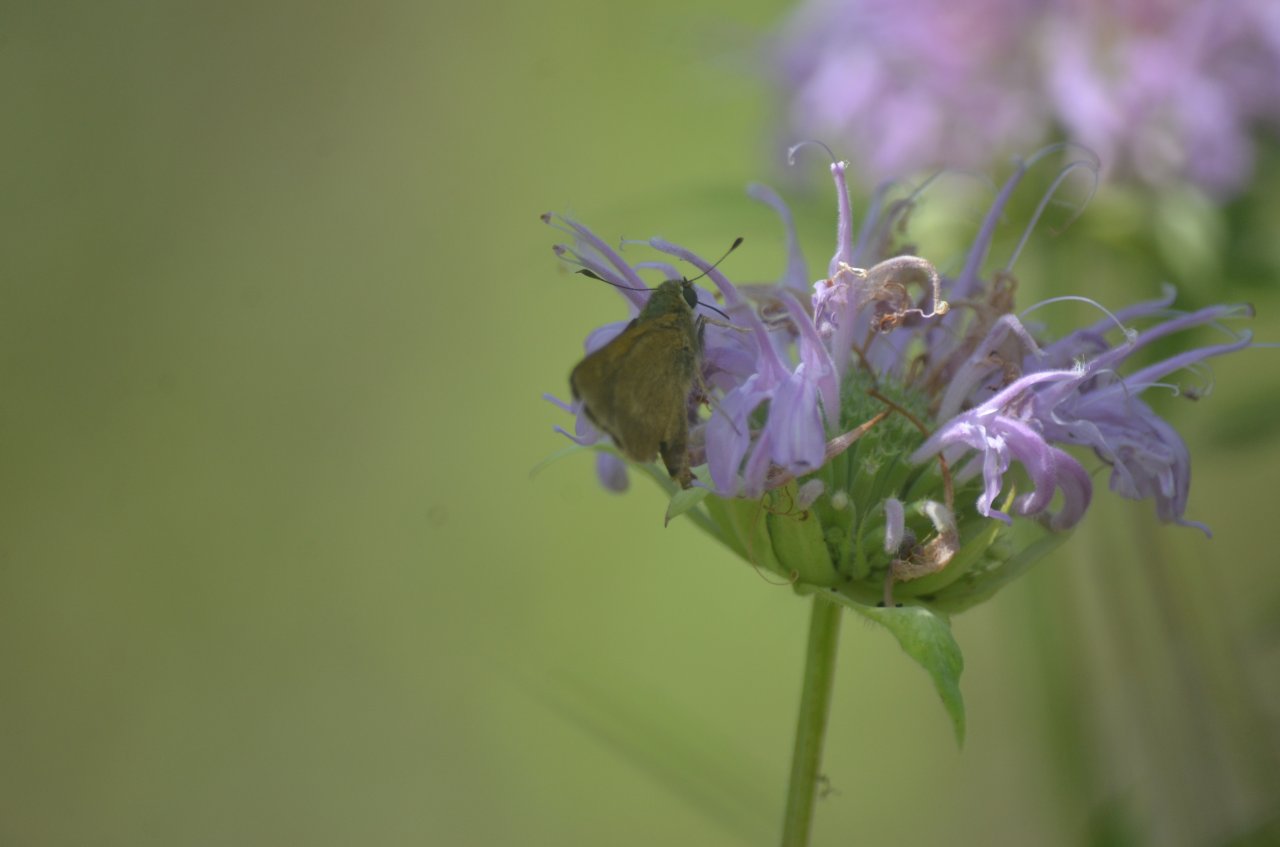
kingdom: Animalia
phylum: Arthropoda
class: Insecta
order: Lepidoptera
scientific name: Lepidoptera
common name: Butterflies
